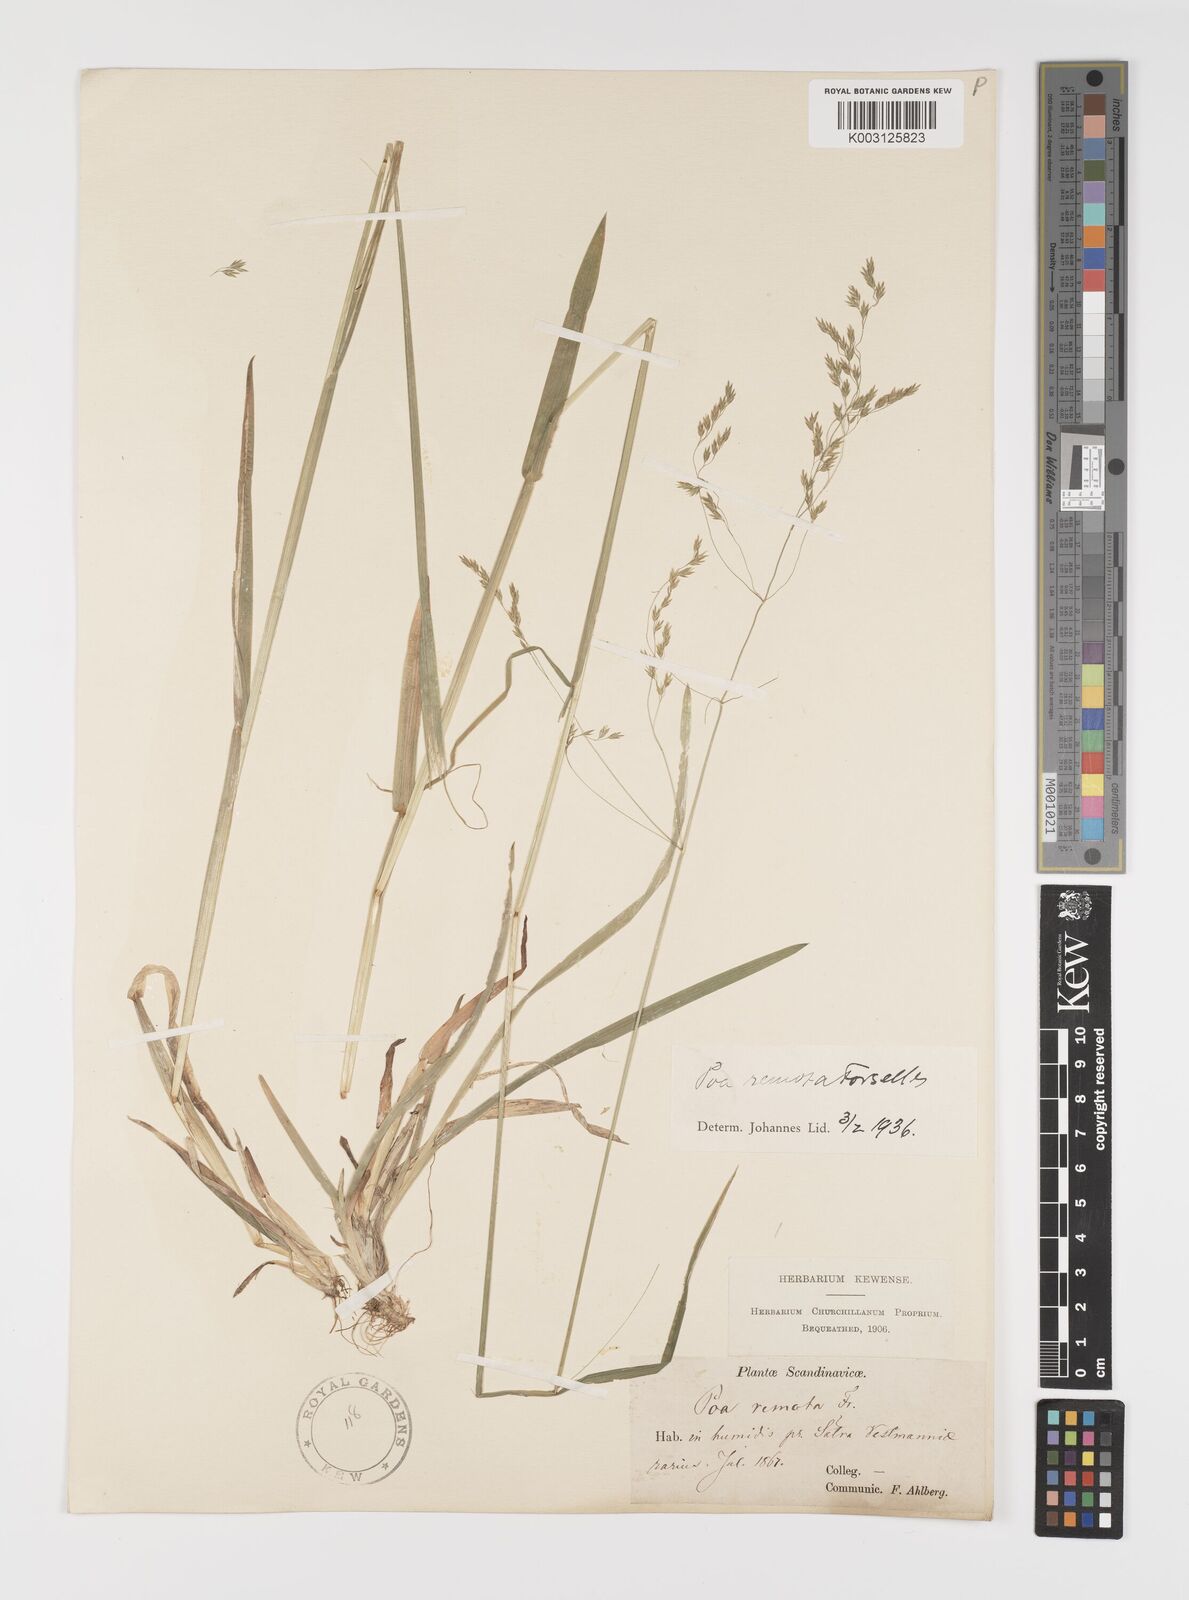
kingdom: Plantae
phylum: Tracheophyta
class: Liliopsida
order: Poales
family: Poaceae
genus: Poa
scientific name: Poa remota
